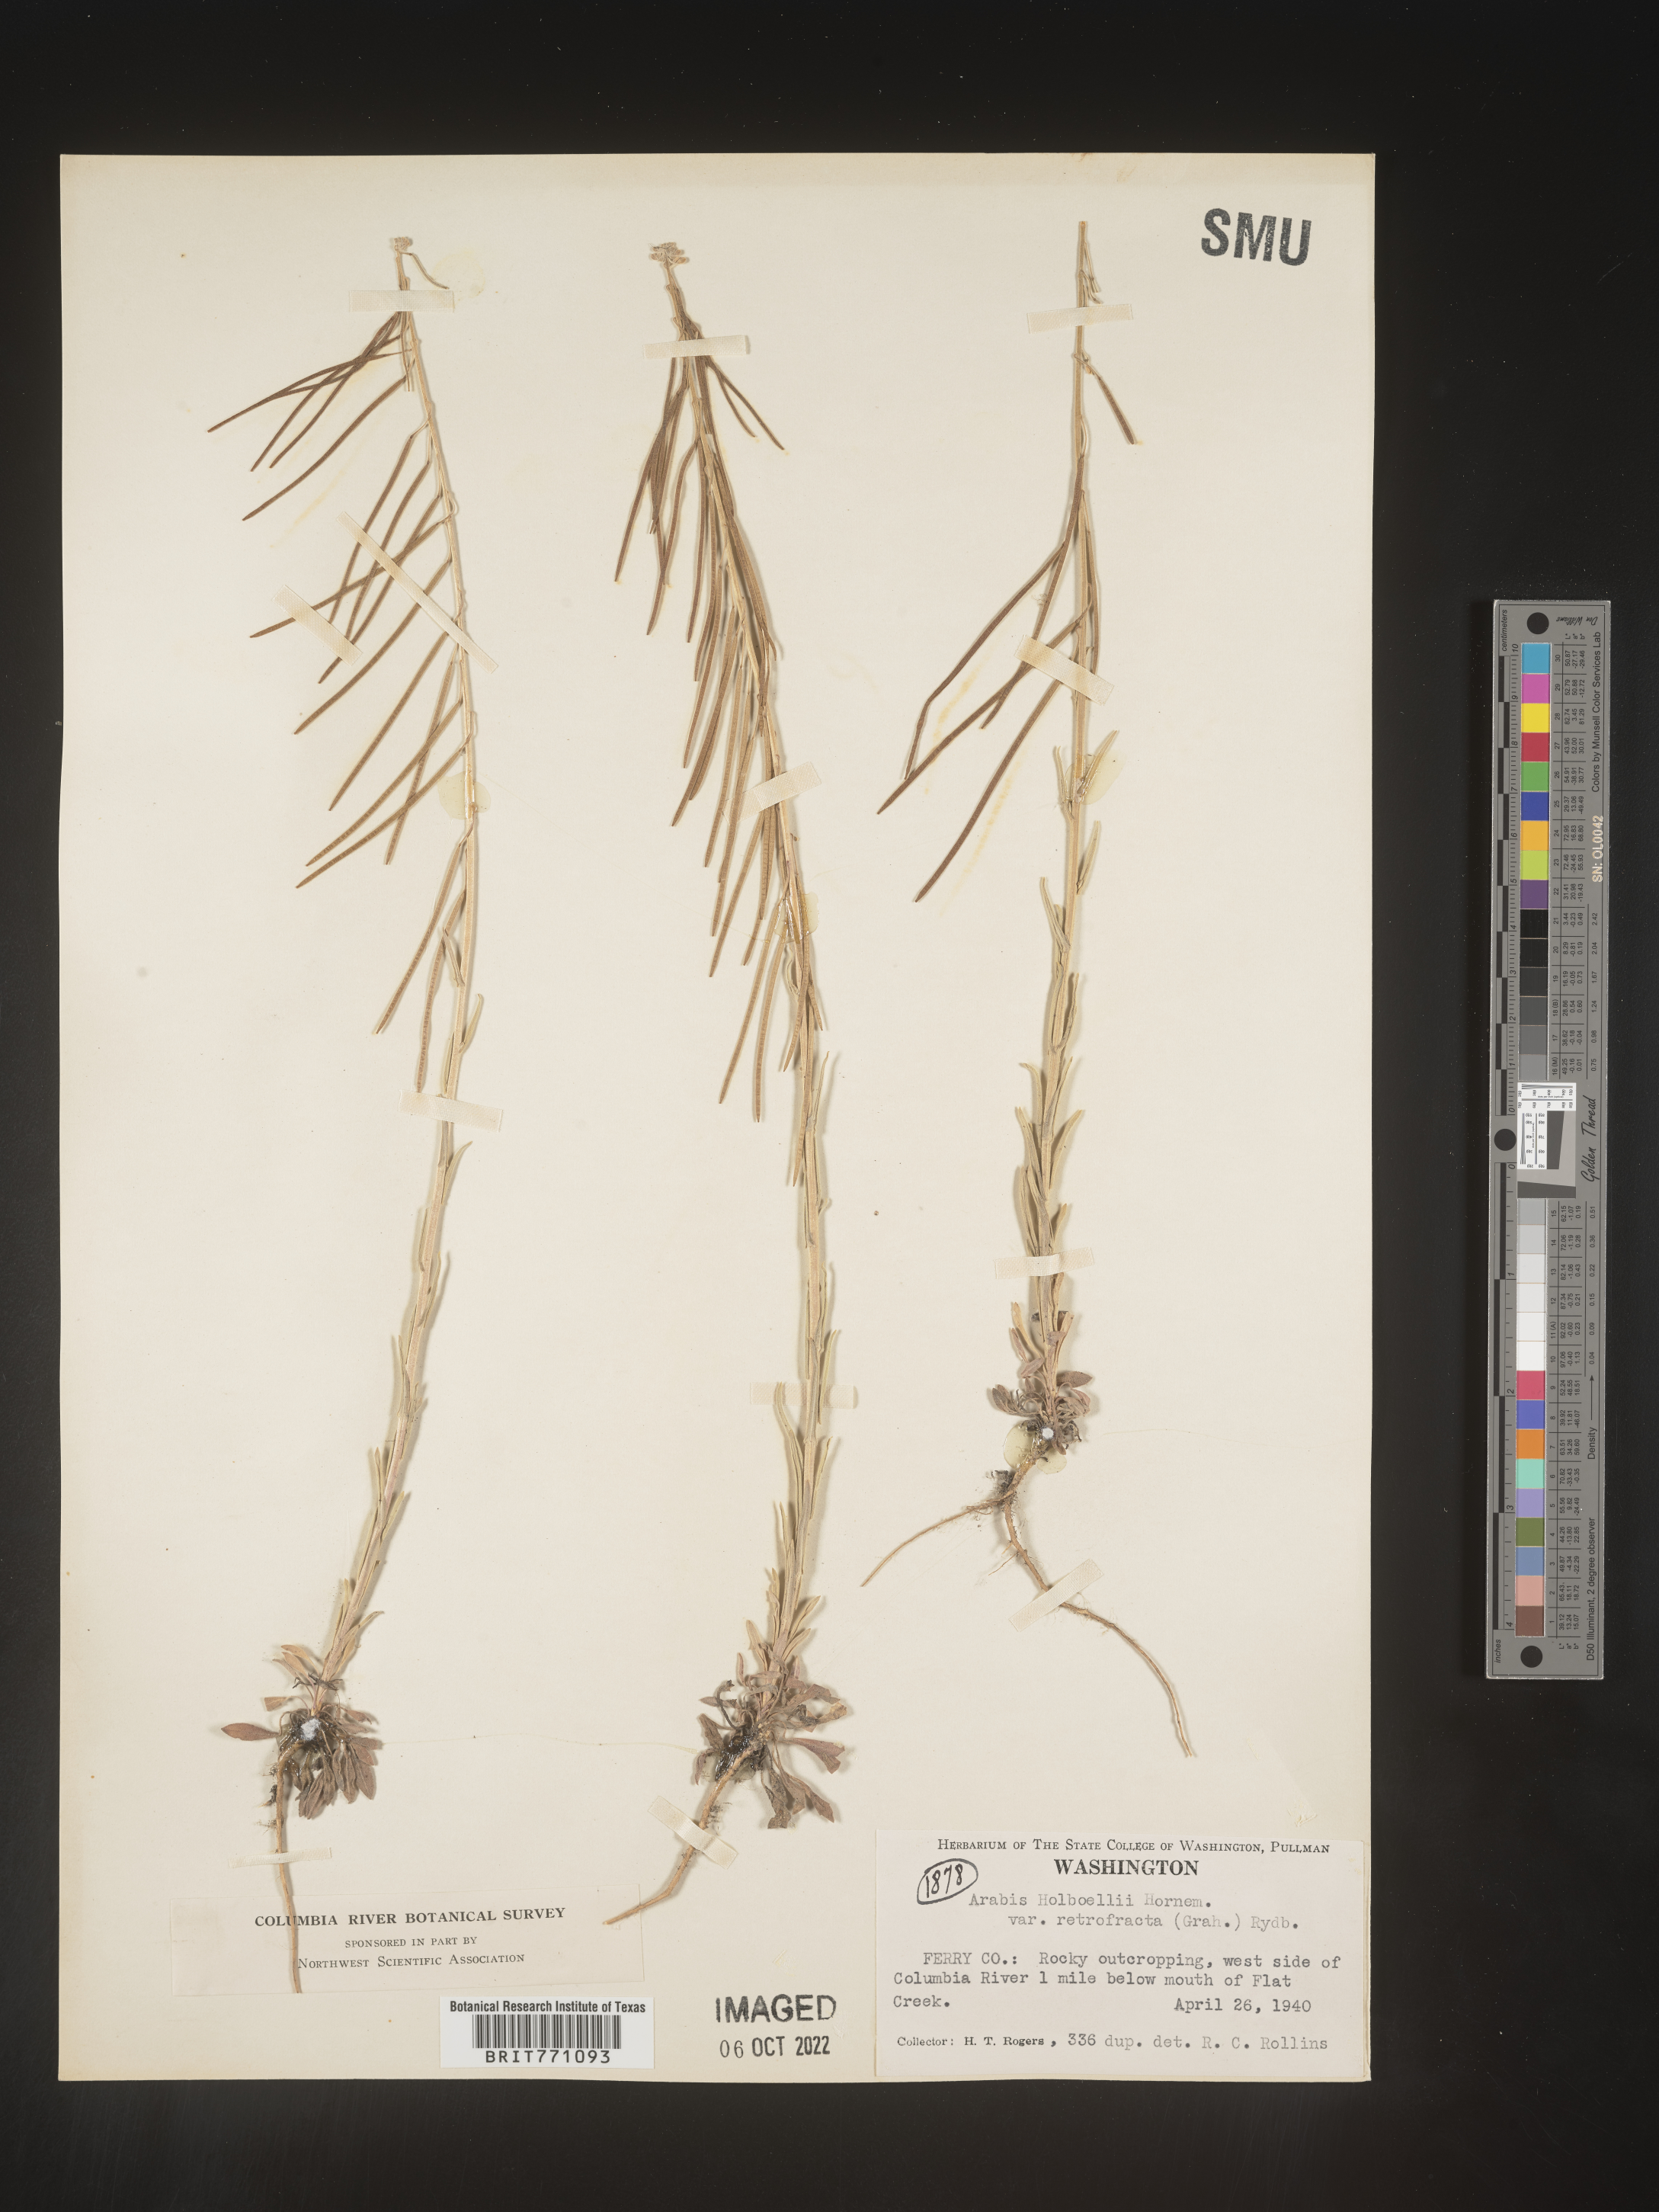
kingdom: Plantae
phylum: Tracheophyta
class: Magnoliopsida
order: Brassicales
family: Brassicaceae
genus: Boechera
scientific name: Boechera holboellii
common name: Holboell's rockcress
